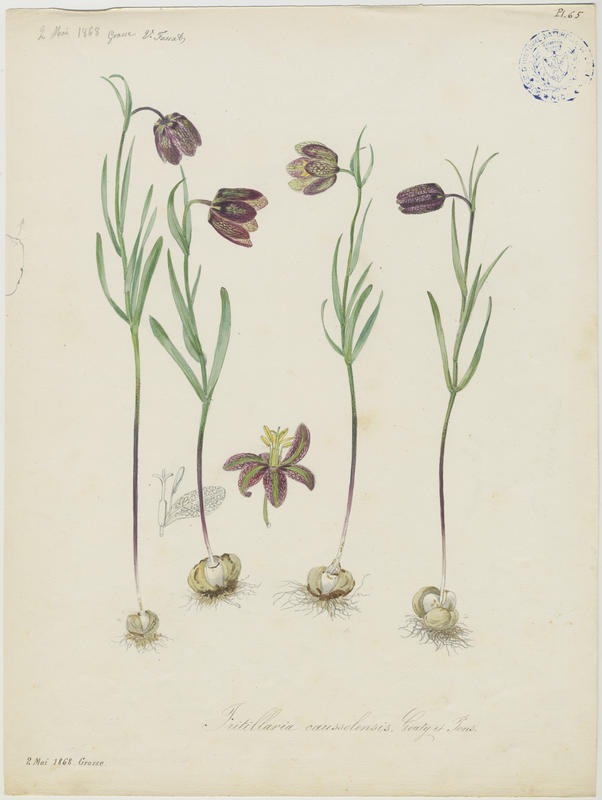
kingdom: Plantae
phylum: Tracheophyta
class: Liliopsida
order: Liliales
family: Liliaceae
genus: Fritillaria
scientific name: Fritillaria orientalis
